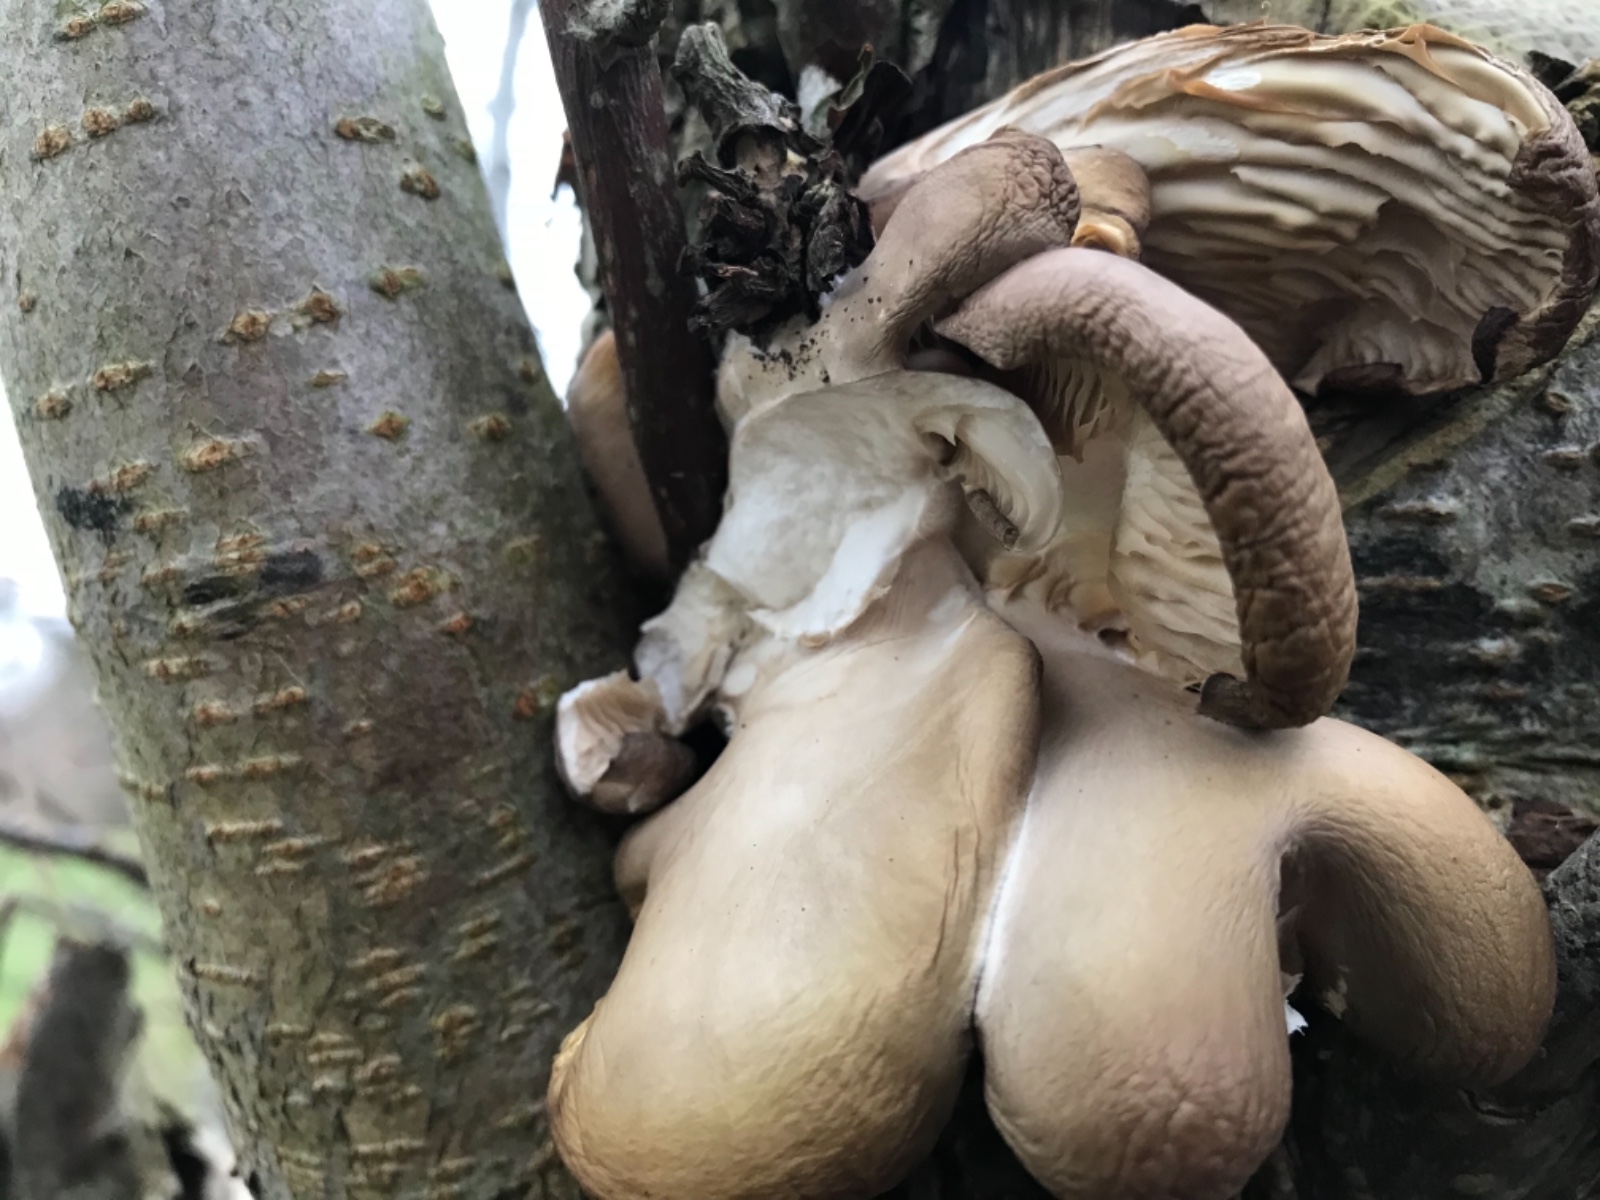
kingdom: Fungi
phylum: Basidiomycota
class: Agaricomycetes
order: Agaricales
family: Pleurotaceae
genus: Pleurotus
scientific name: Pleurotus ostreatus
